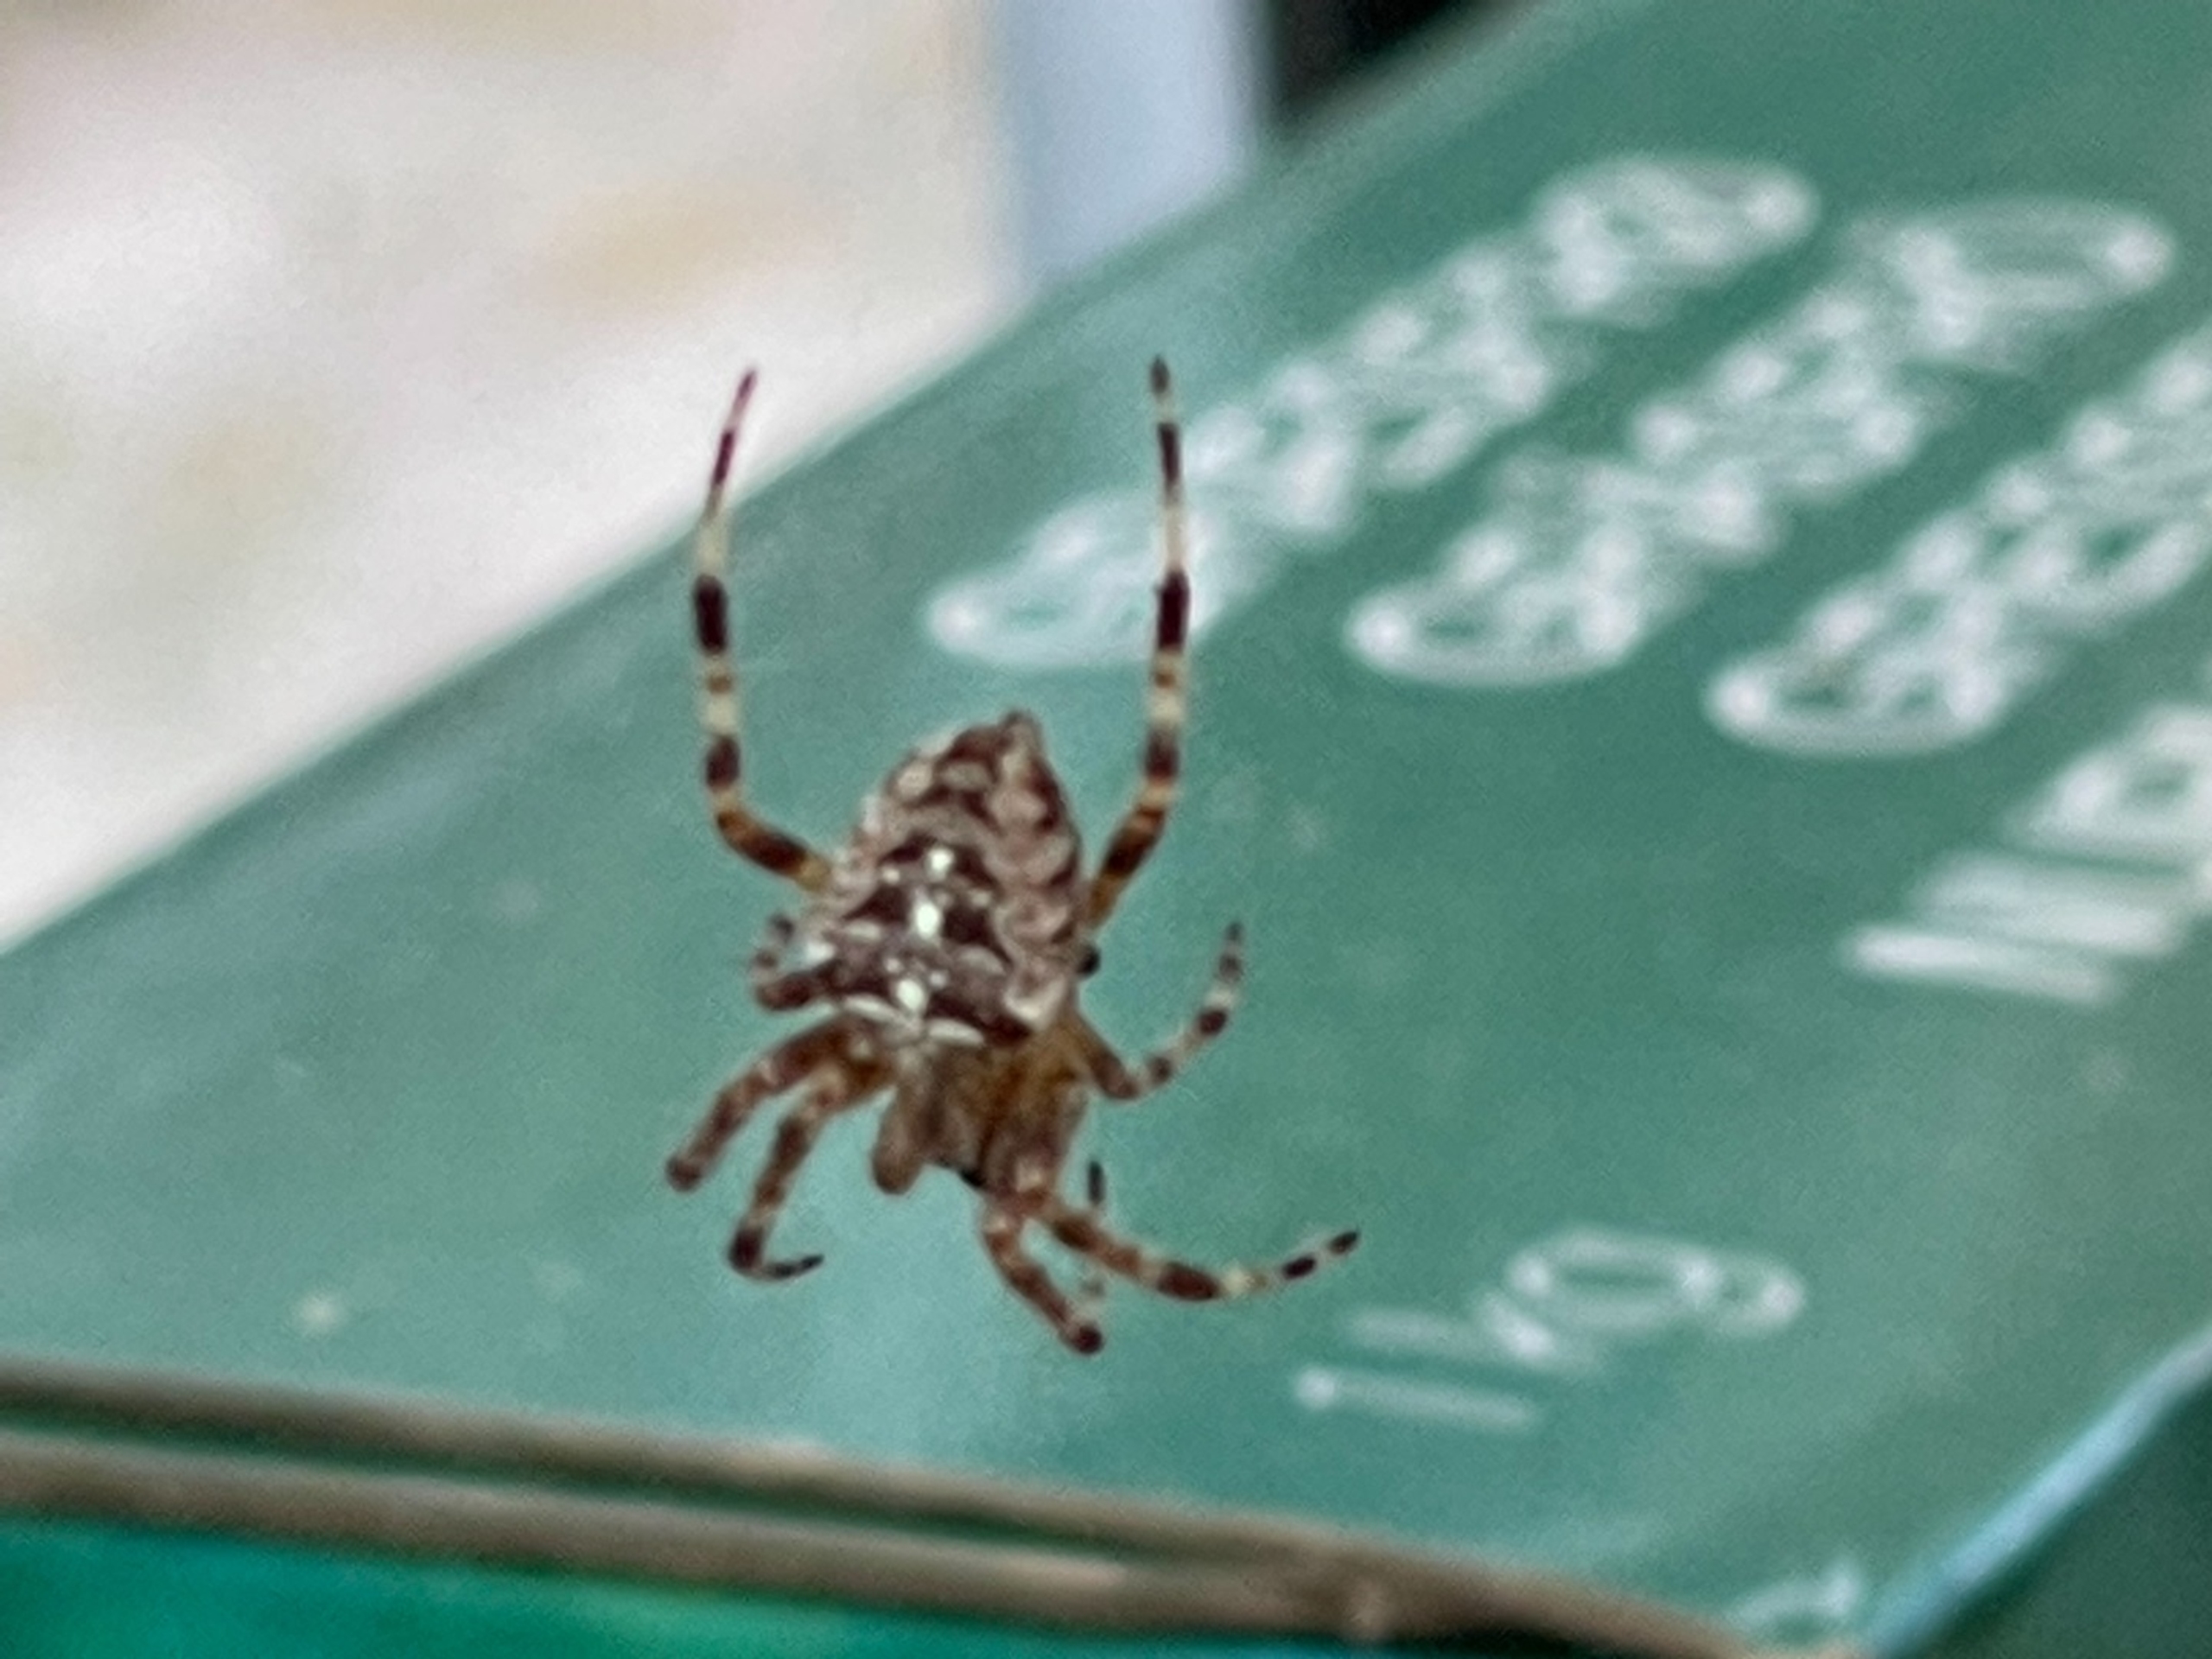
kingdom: Animalia
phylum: Arthropoda
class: Arachnida
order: Araneae
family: Araneidae
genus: Araneus
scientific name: Araneus diadematus
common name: Korsedderkop
